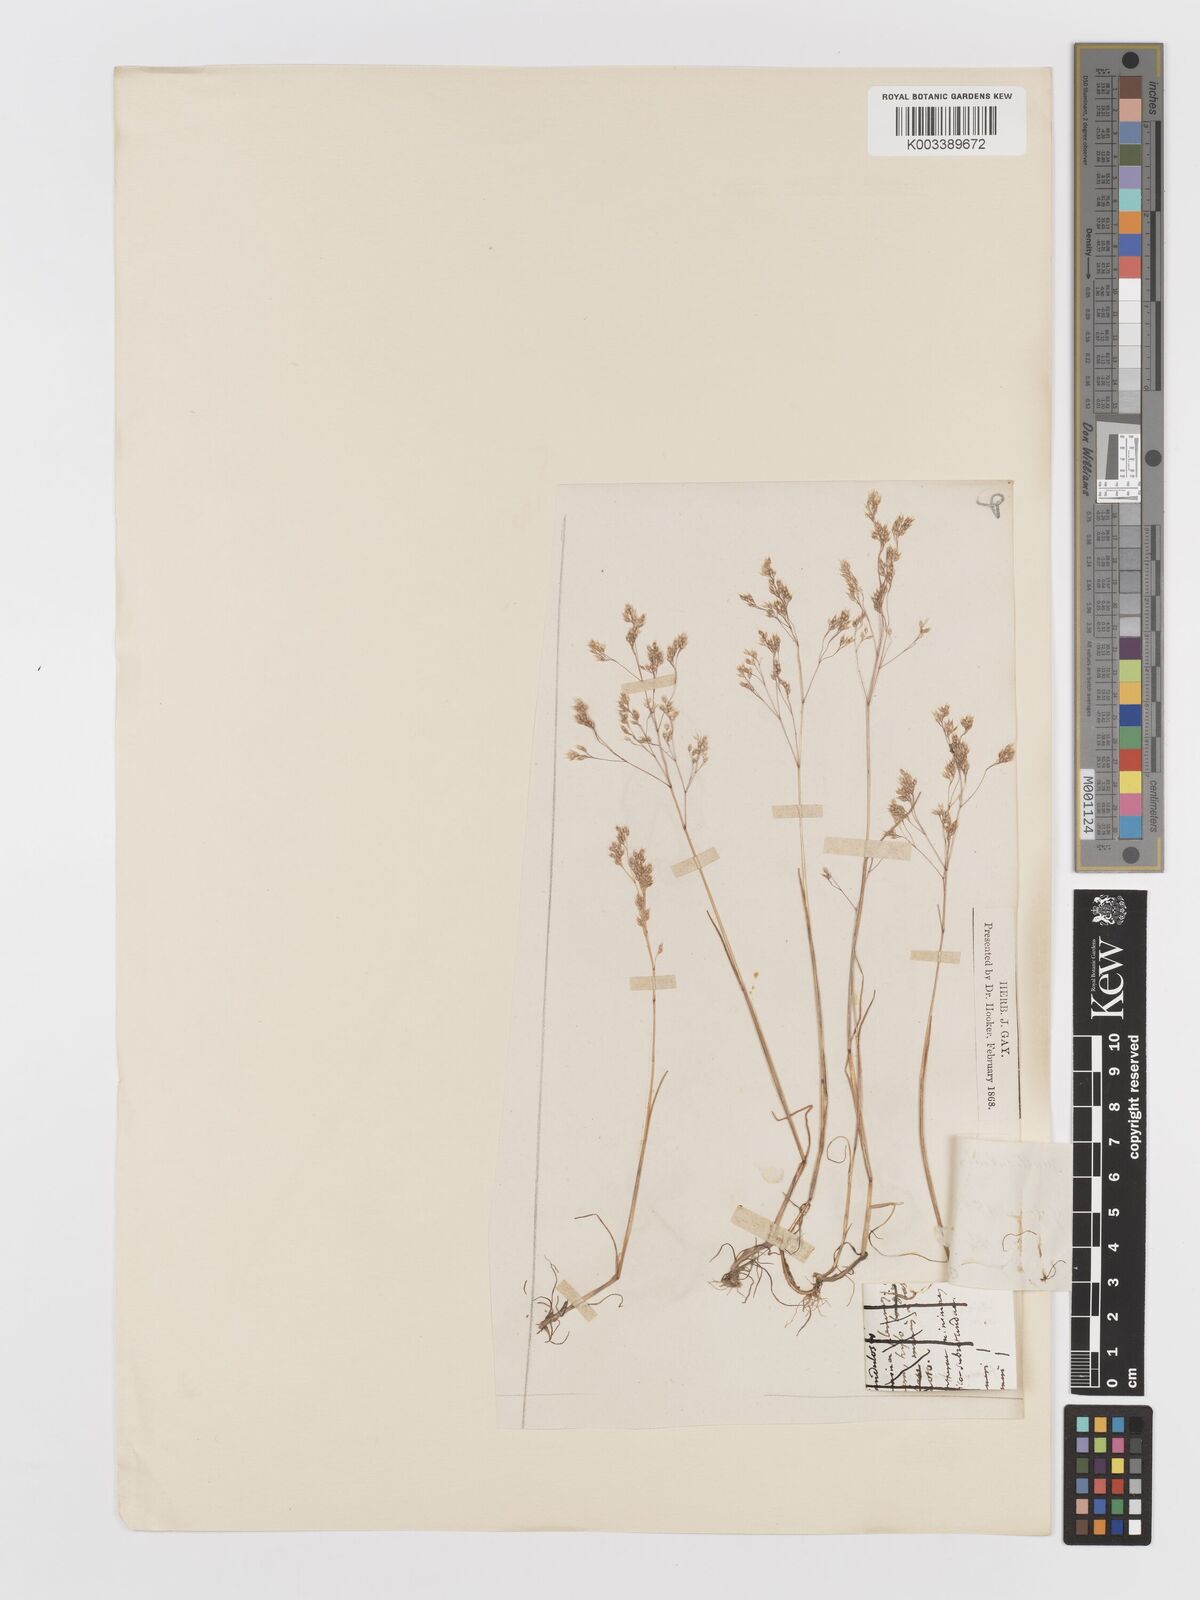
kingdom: Plantae
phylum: Tracheophyta
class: Liliopsida
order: Poales
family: Poaceae
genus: Aira
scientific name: Aira caryophyllea
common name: Silver hairgrass
